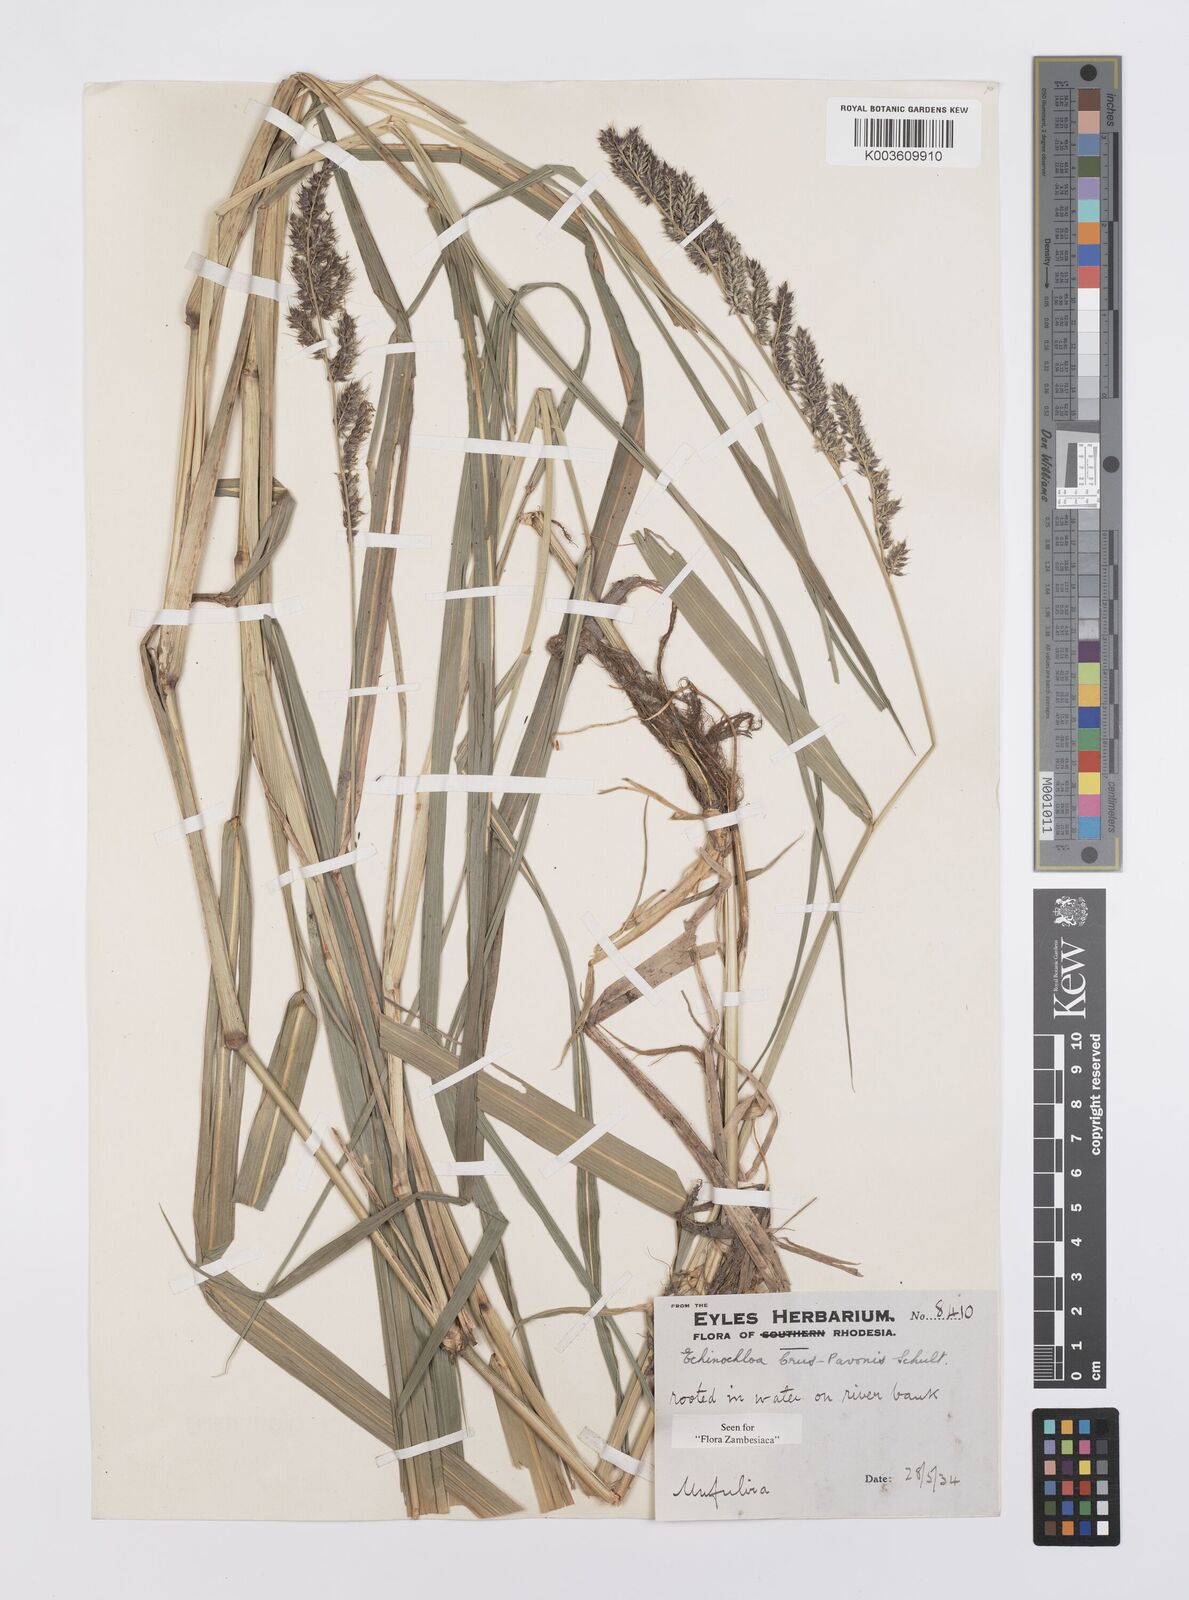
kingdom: Plantae
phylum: Tracheophyta
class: Liliopsida
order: Poales
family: Poaceae
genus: Echinochloa
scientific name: Echinochloa crus-pavonis
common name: Gulf cockspur grass
